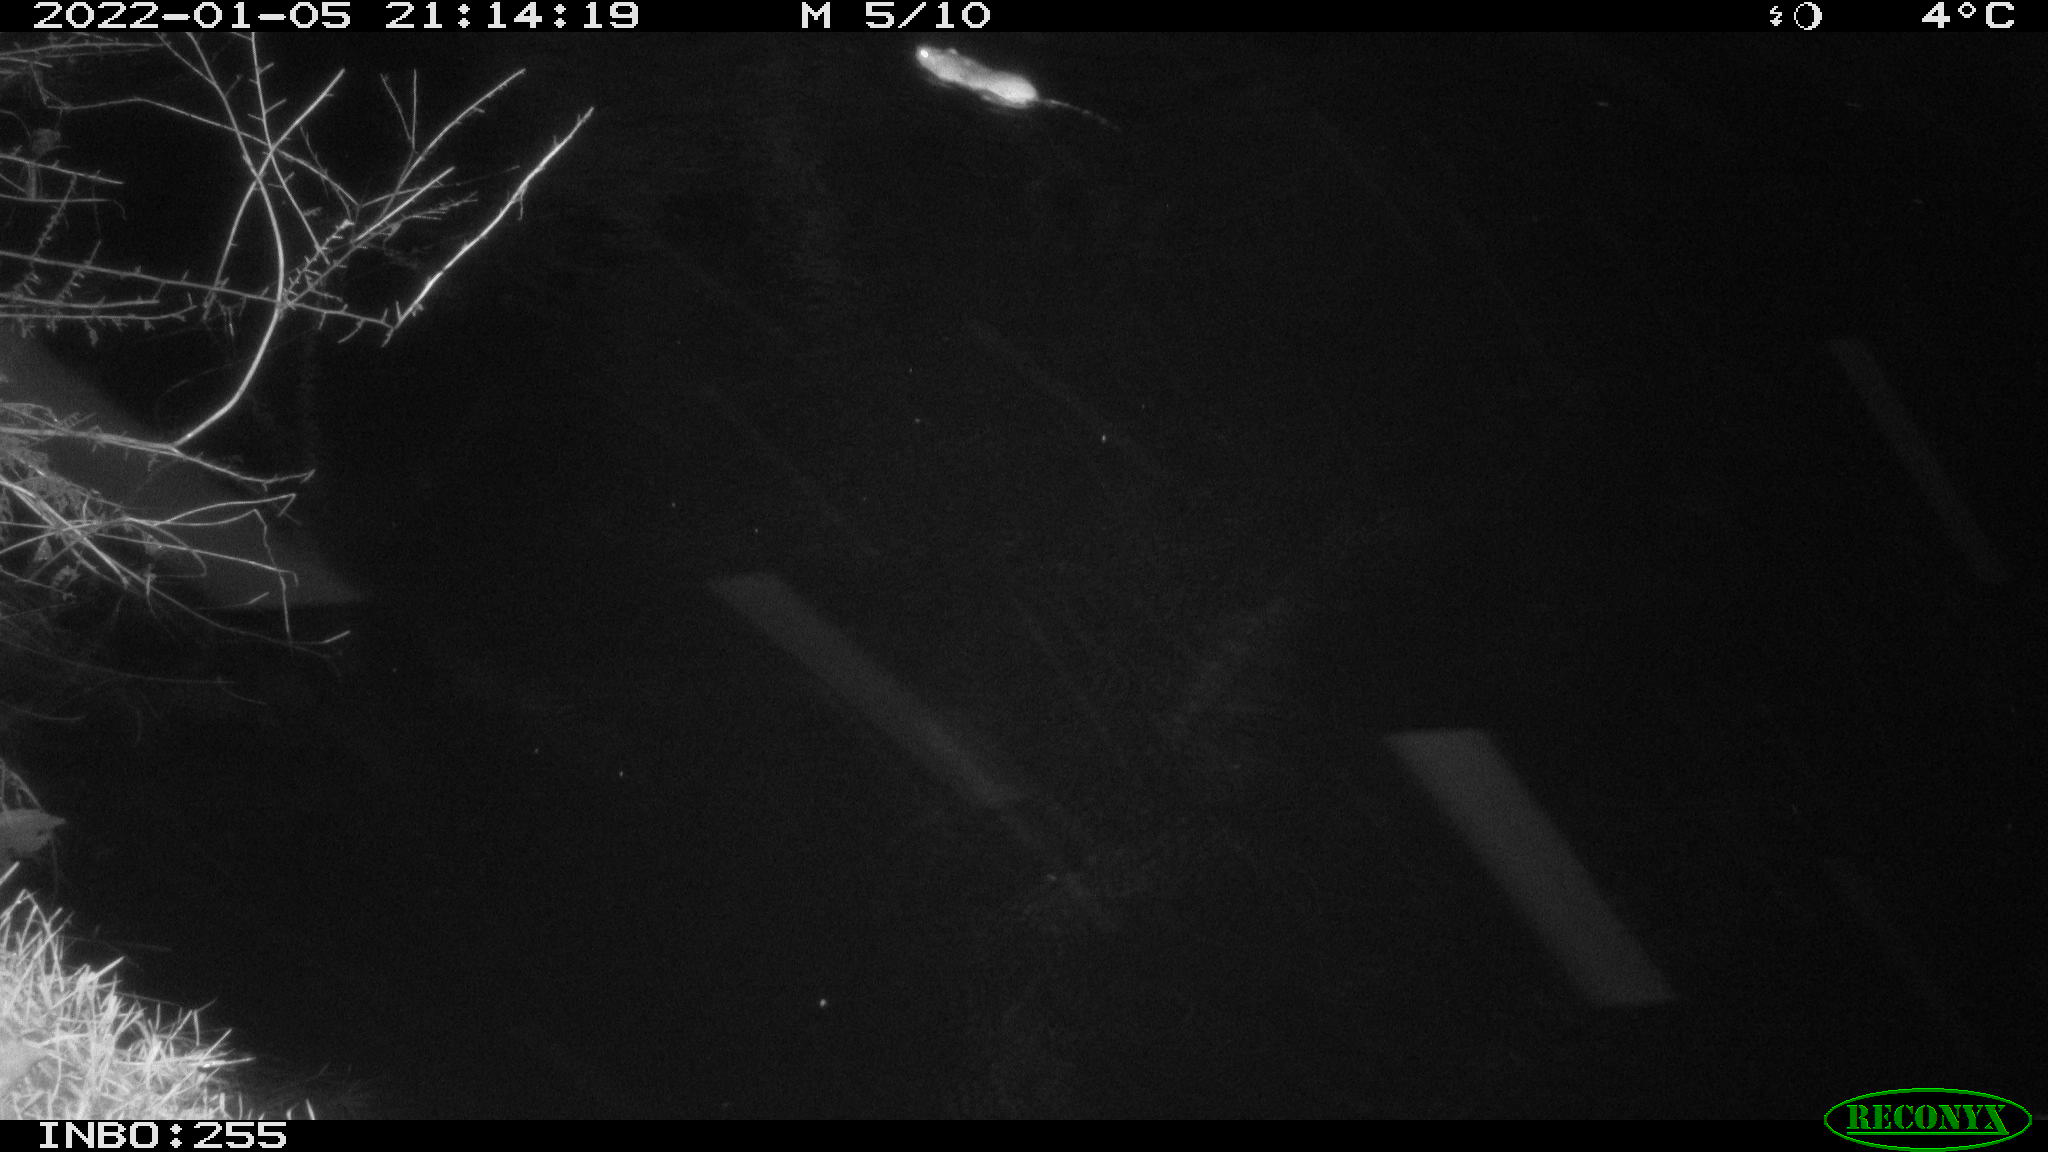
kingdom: Animalia
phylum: Chordata
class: Mammalia
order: Rodentia
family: Muridae
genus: Rattus
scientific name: Rattus norvegicus
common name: Brown rat
